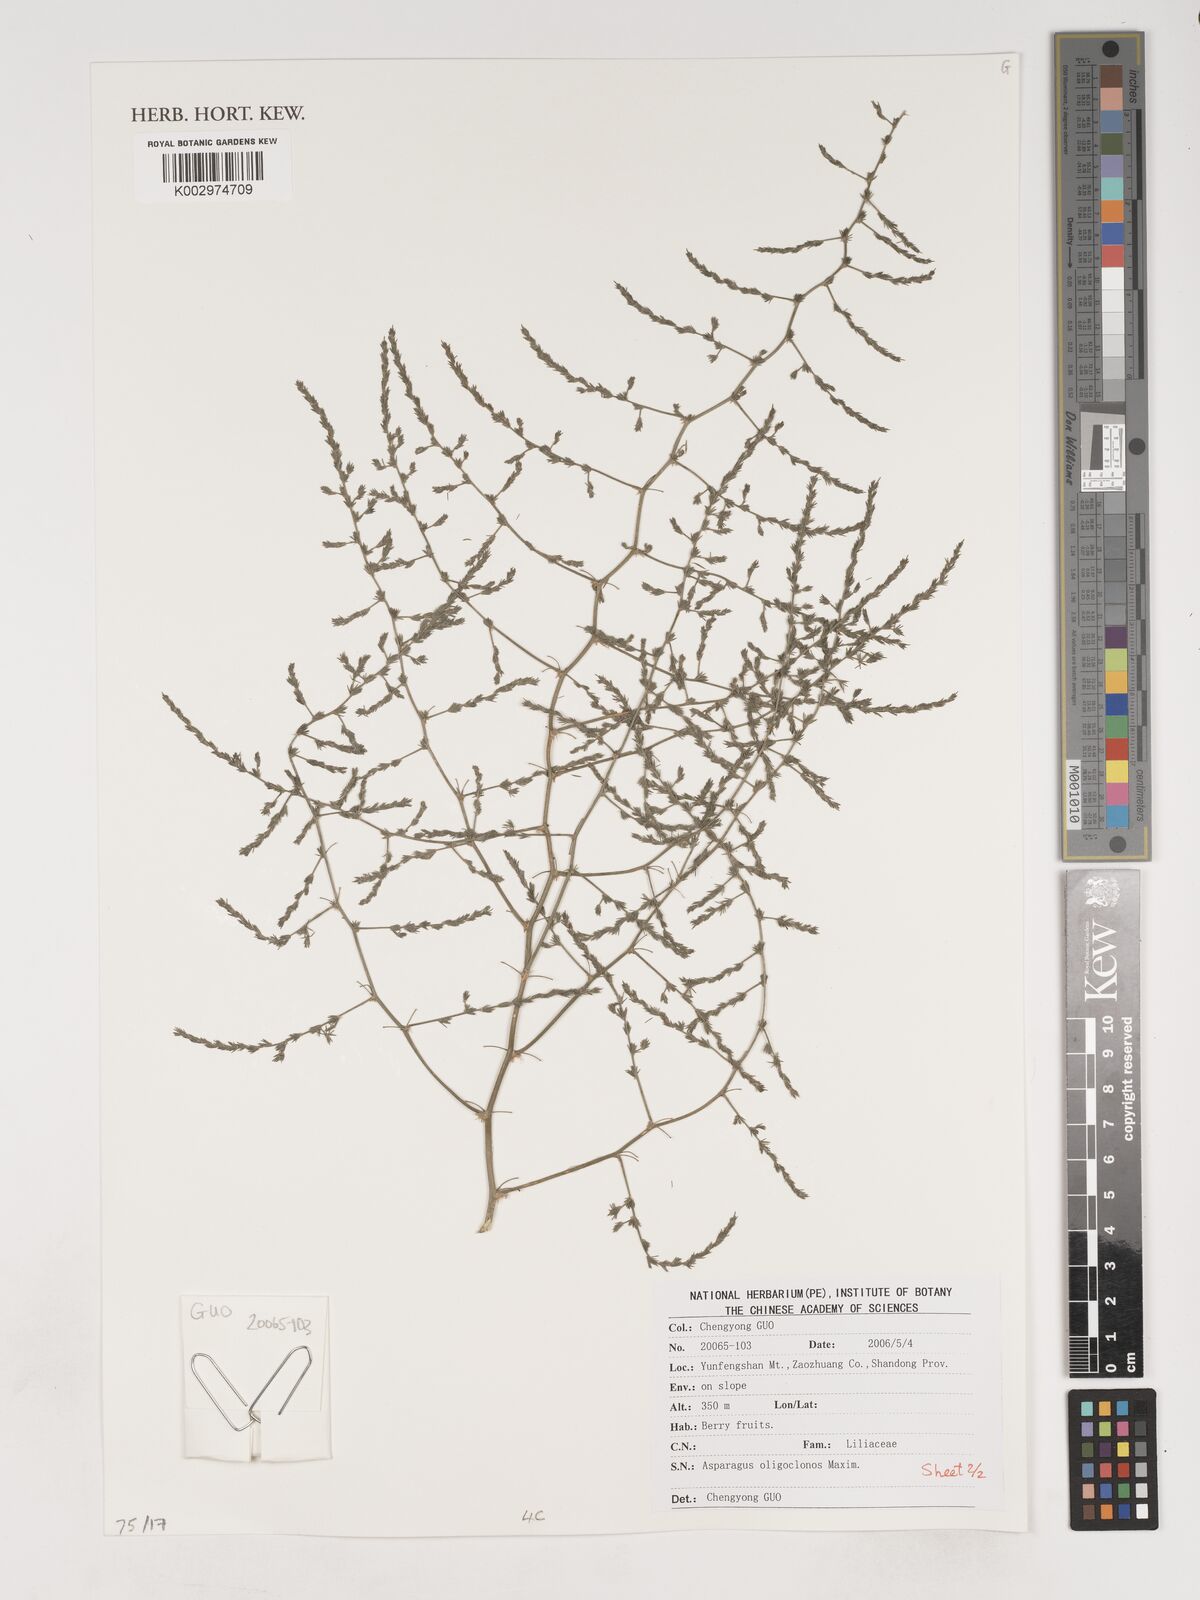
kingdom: Plantae
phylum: Tracheophyta
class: Liliopsida
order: Asparagales
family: Asparagaceae
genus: Asparagus
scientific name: Asparagus oligoclonos
